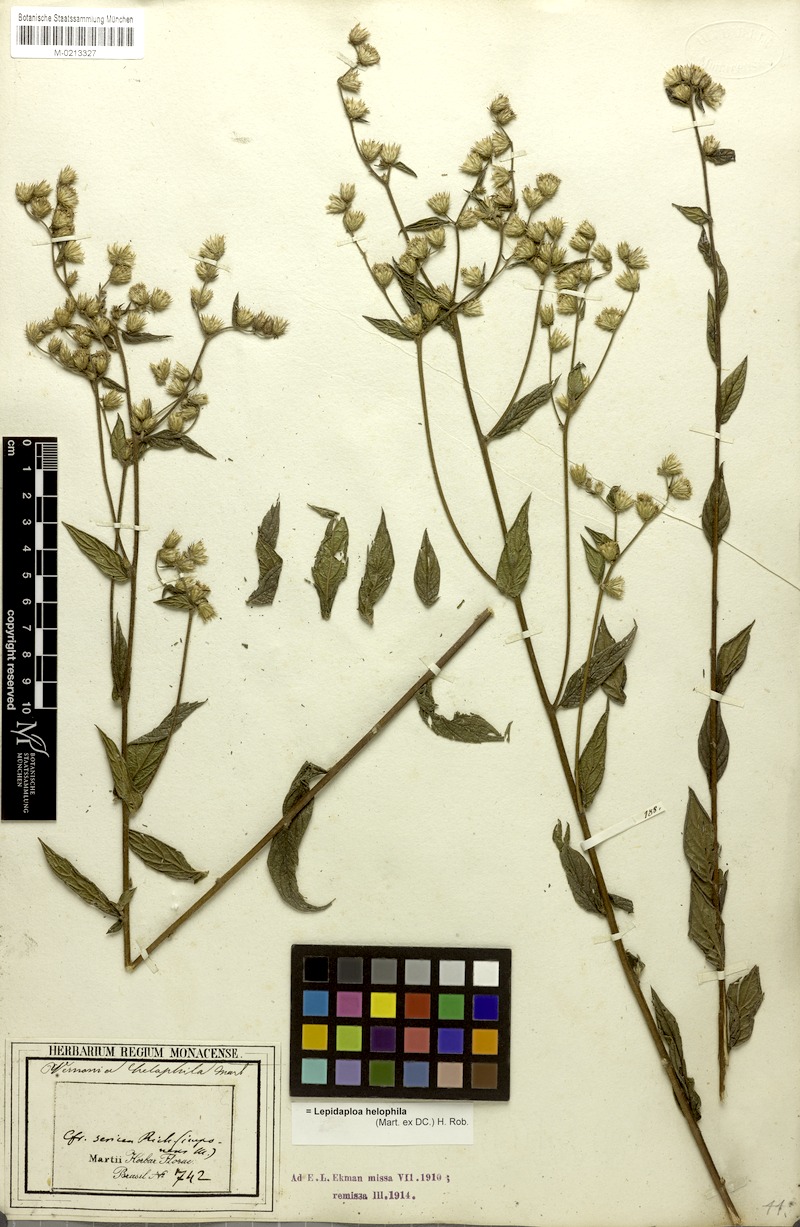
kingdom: Plantae
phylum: Tracheophyta
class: Magnoliopsida
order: Asterales
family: Asteraceae
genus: Lepidaploa
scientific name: Lepidaploa helophila
